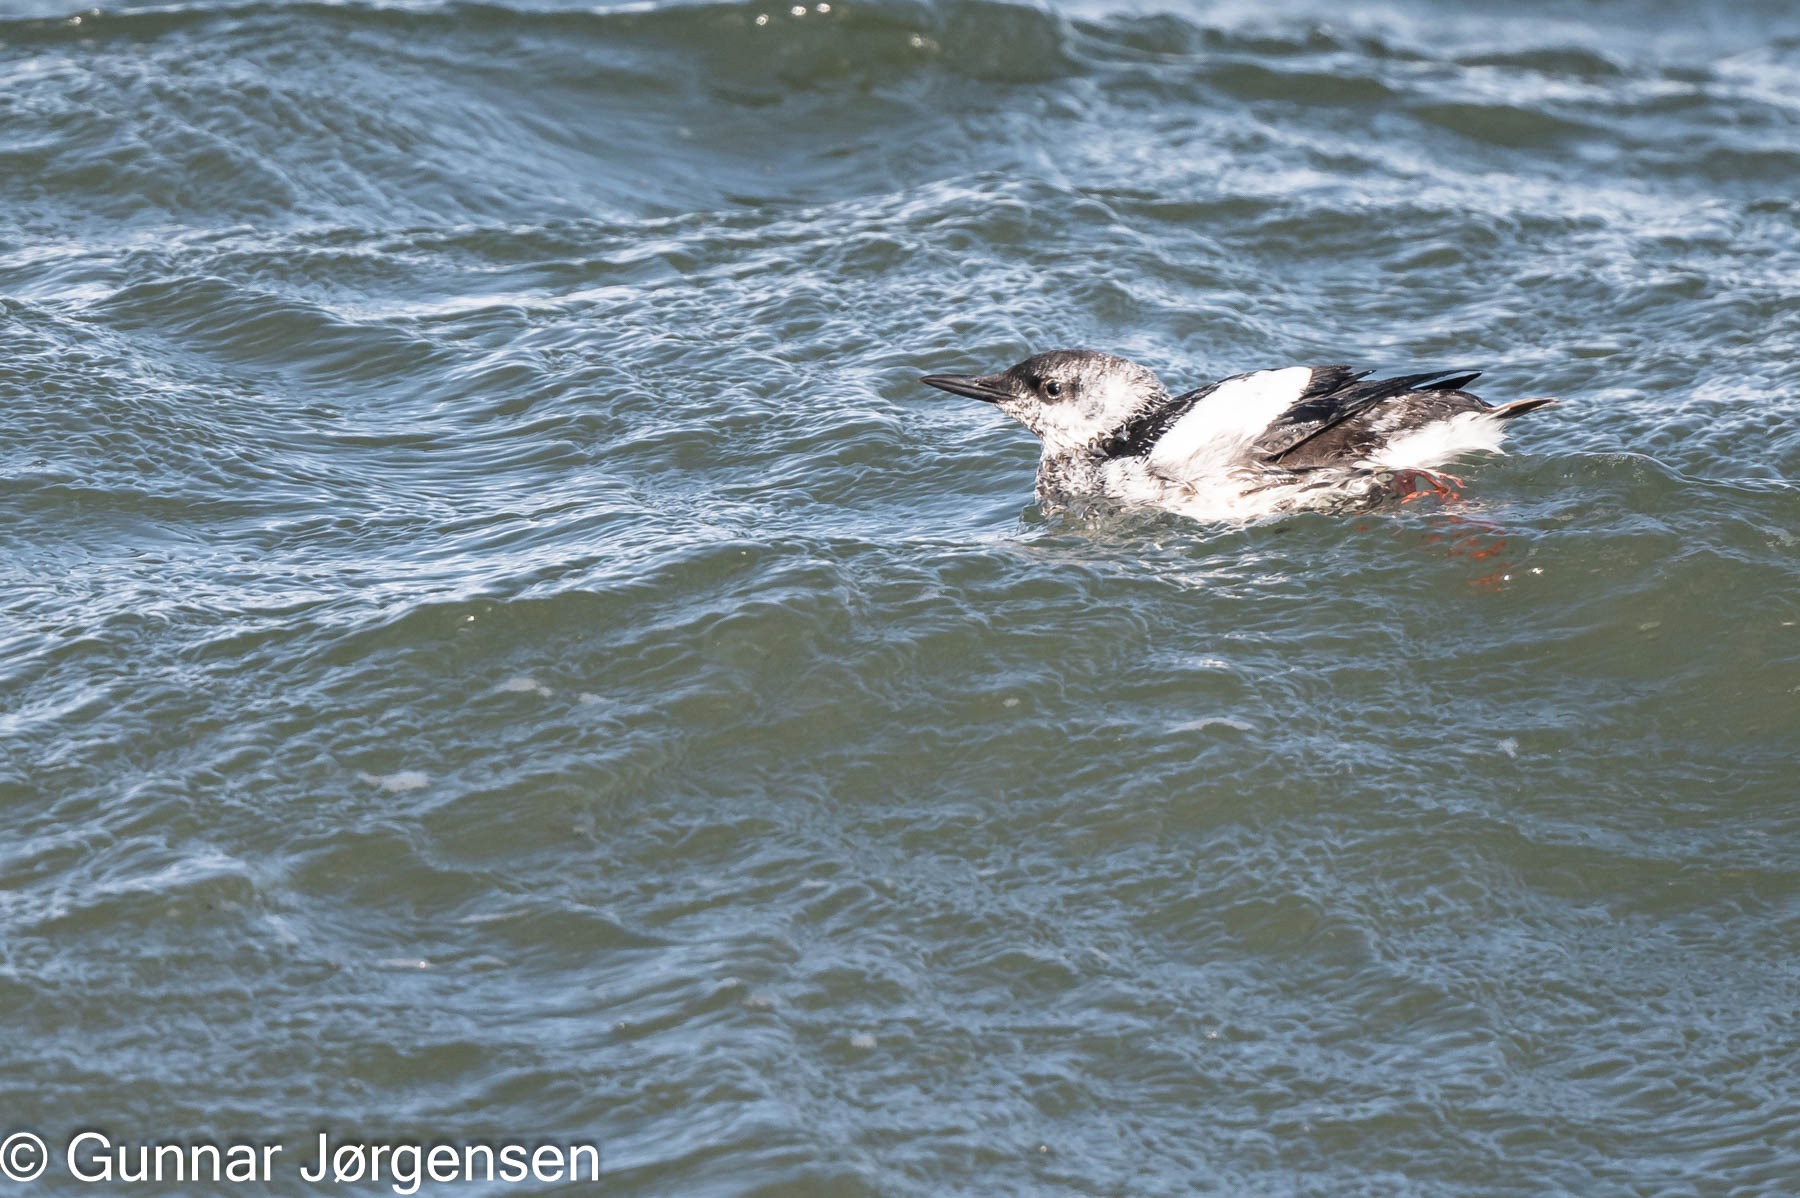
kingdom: Animalia
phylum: Chordata
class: Aves
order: Charadriiformes
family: Alcidae
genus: Cepphus
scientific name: Cepphus grylle
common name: Tejst
